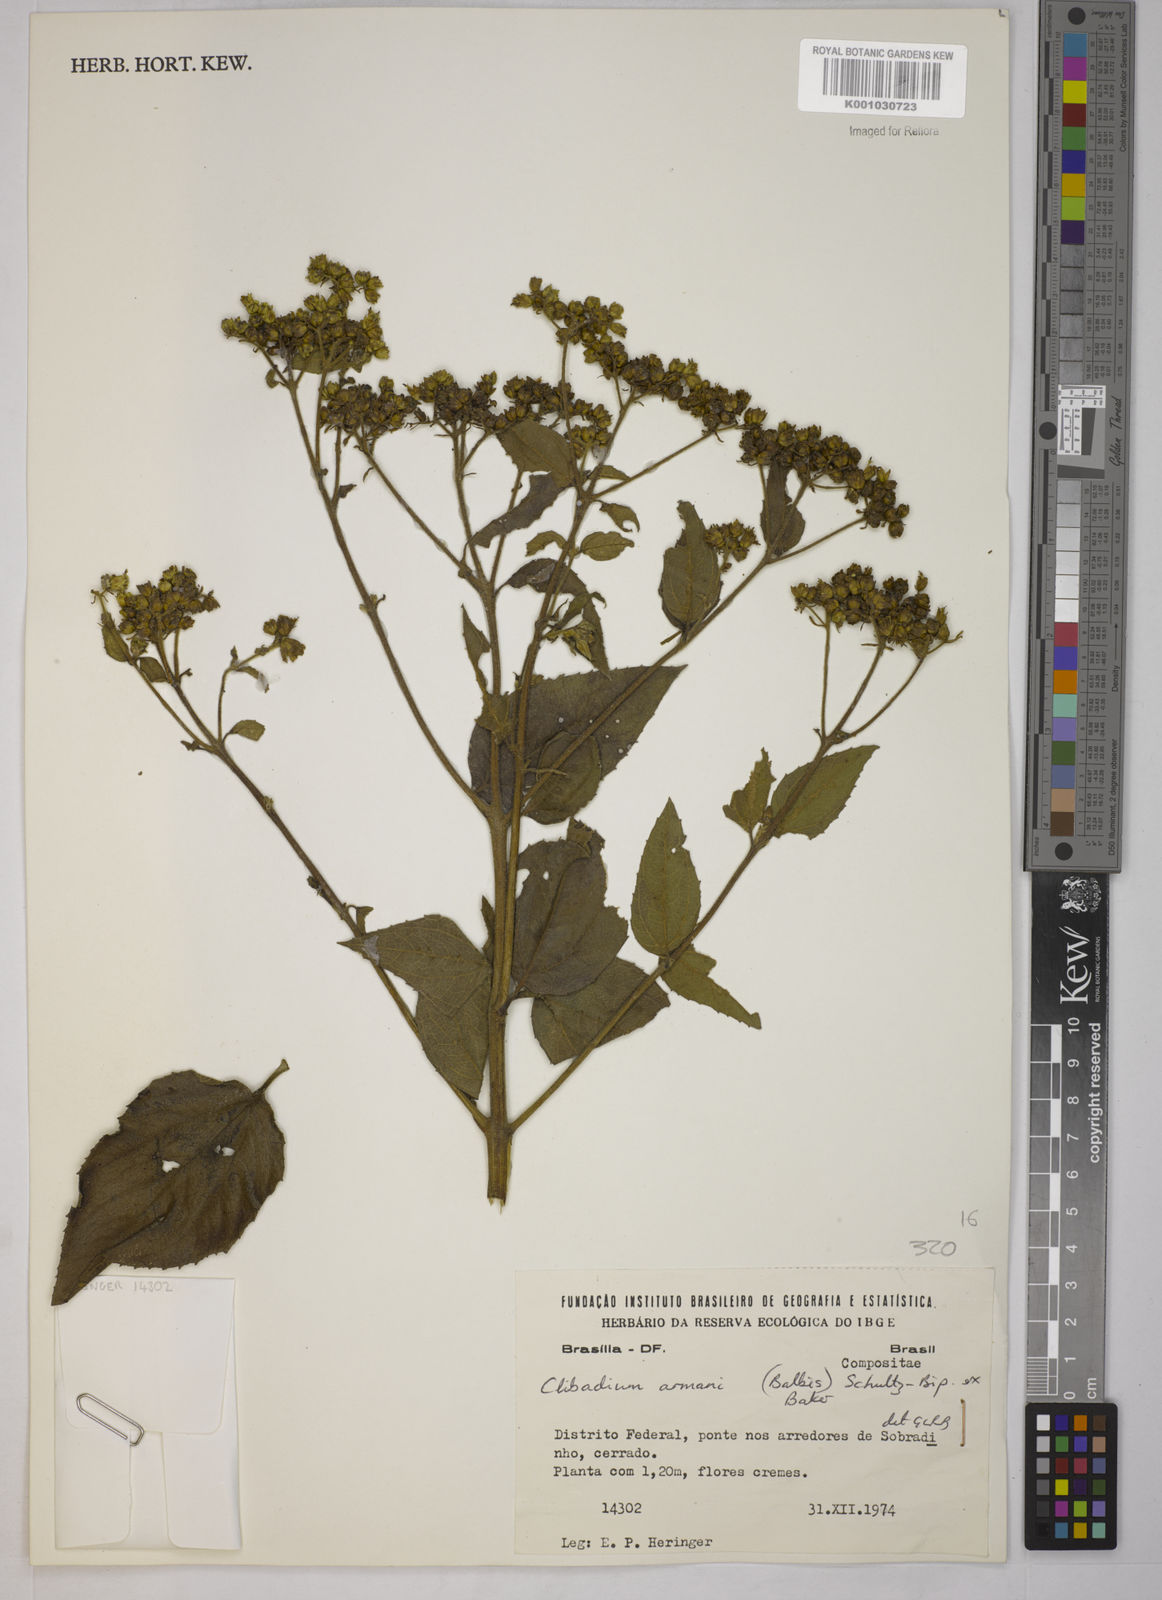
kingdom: Plantae
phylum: Tracheophyta
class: Magnoliopsida
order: Asterales
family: Asteraceae
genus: Clibadium
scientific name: Clibadium armanii
